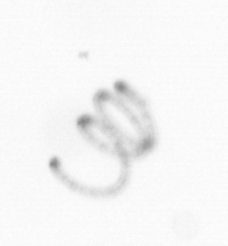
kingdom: Chromista
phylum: Ochrophyta
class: Bacillariophyceae
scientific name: Bacillariophyceae
